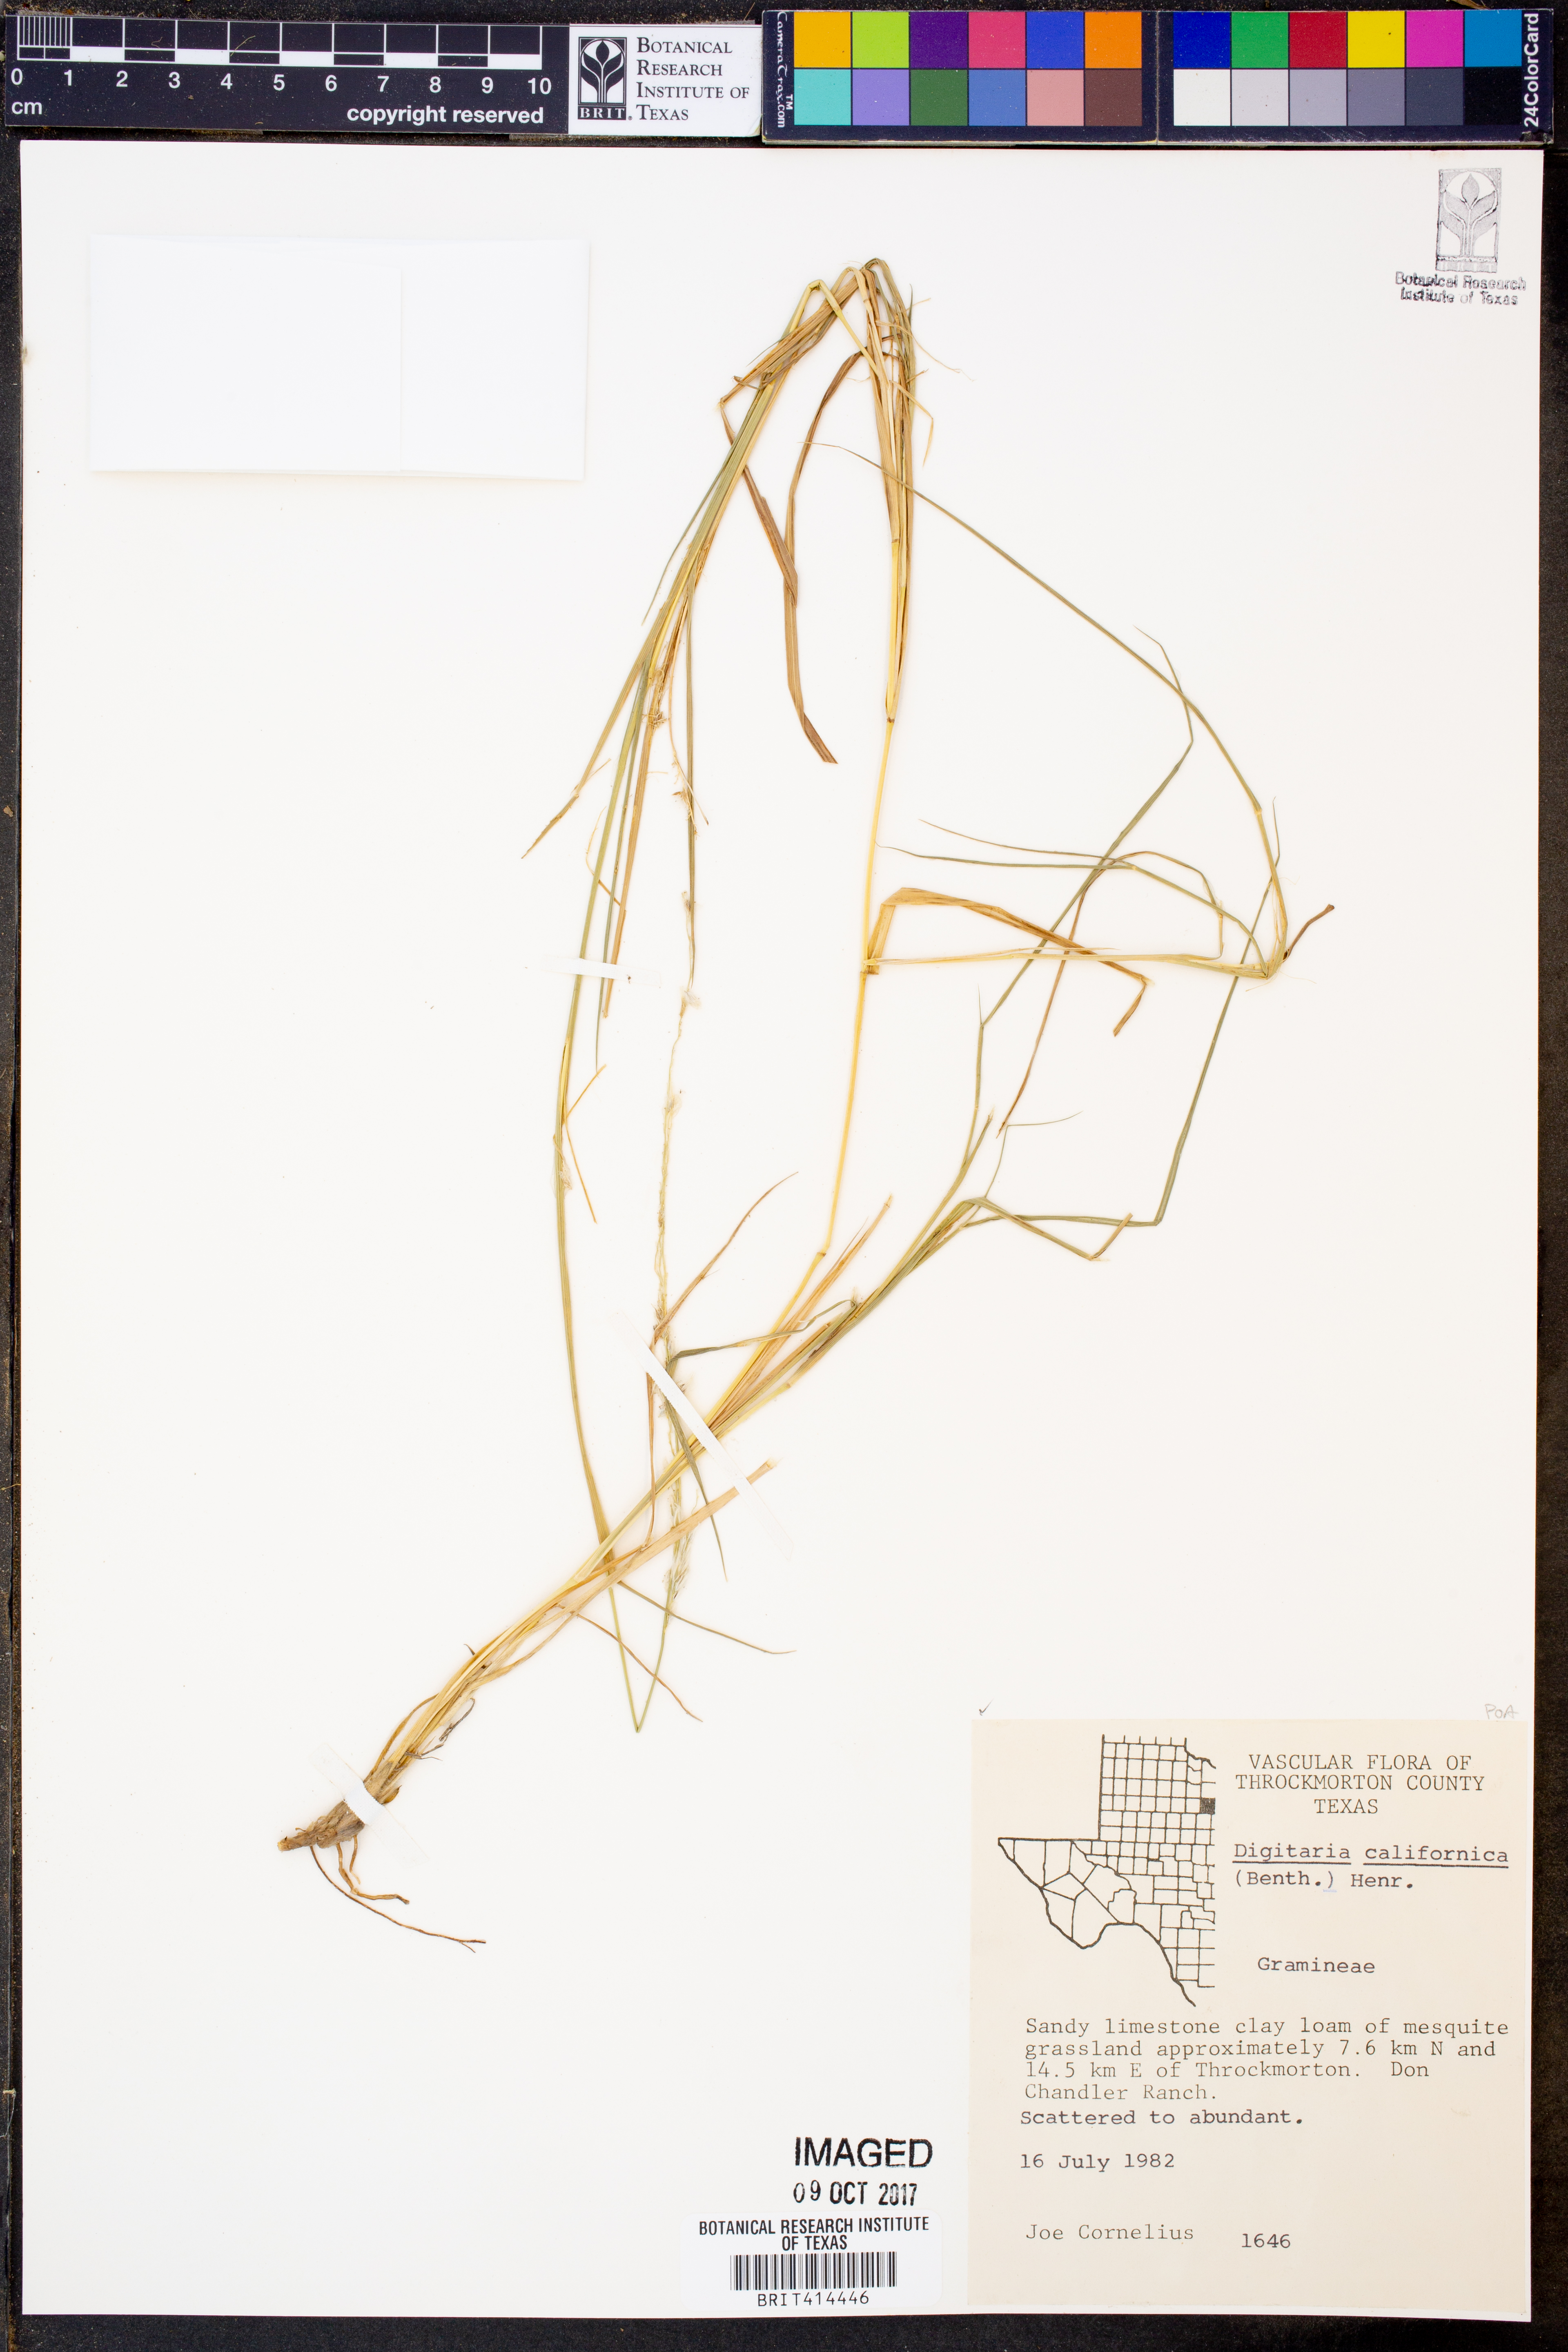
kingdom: Plantae
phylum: Tracheophyta
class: Liliopsida
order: Poales
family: Poaceae
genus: Digitaria
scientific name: Digitaria californica
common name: Arizona cottontop
